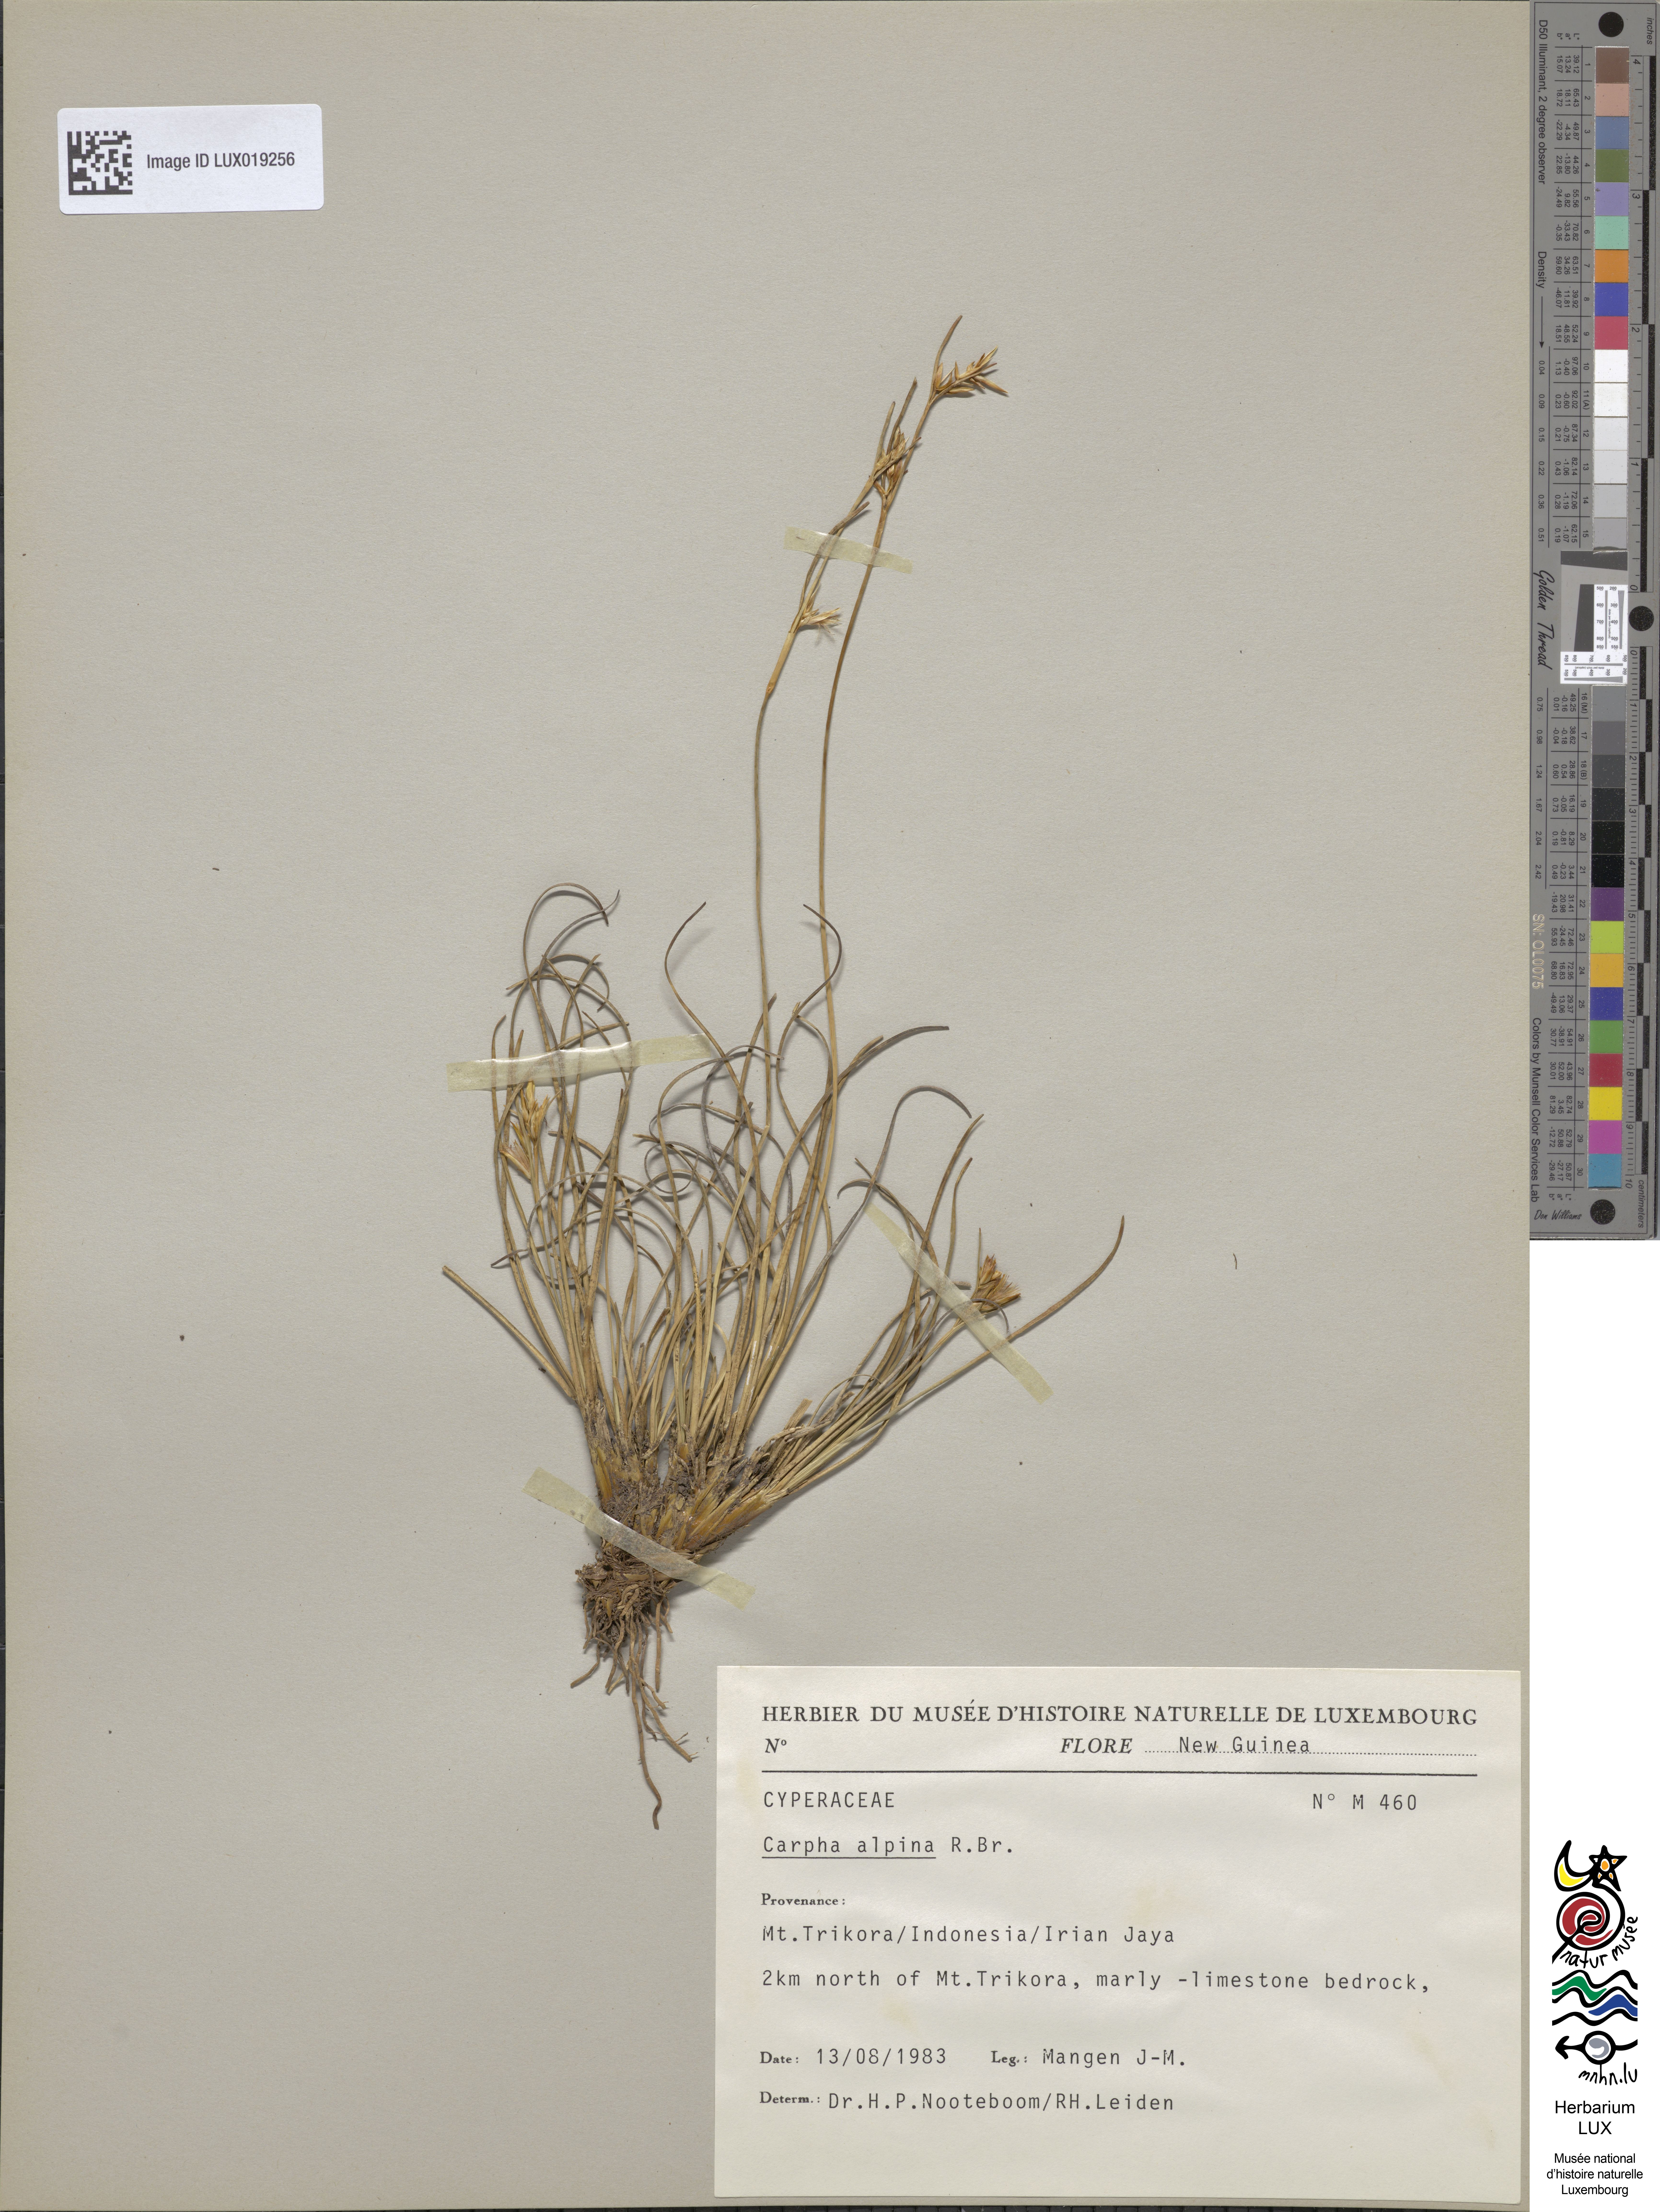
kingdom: Plantae
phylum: Tracheophyta
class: Liliopsida
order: Poales
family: Cyperaceae
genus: Carpha
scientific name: Carpha alpina
